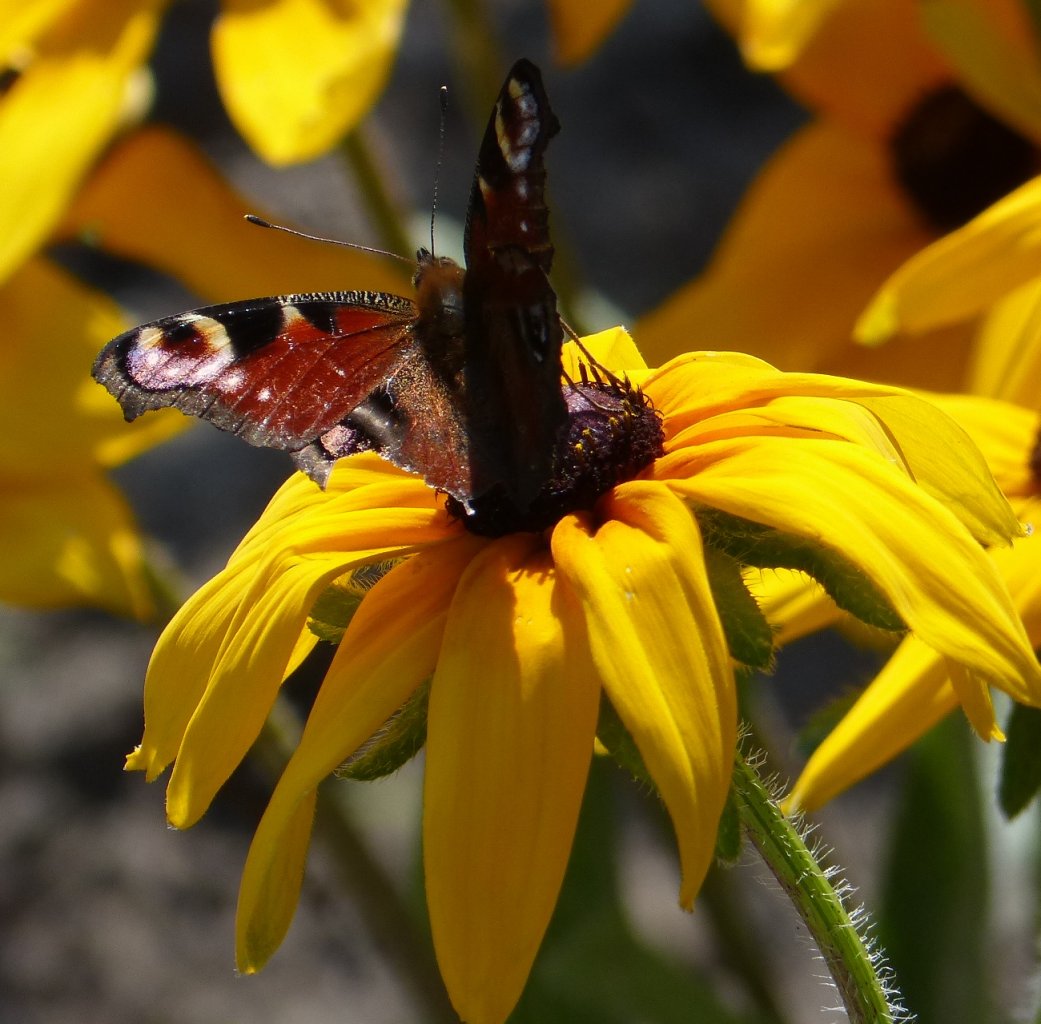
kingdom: Animalia
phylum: Arthropoda
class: Insecta
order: Lepidoptera
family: Nymphalidae
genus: Aglais
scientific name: Aglais io
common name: European Peacock
